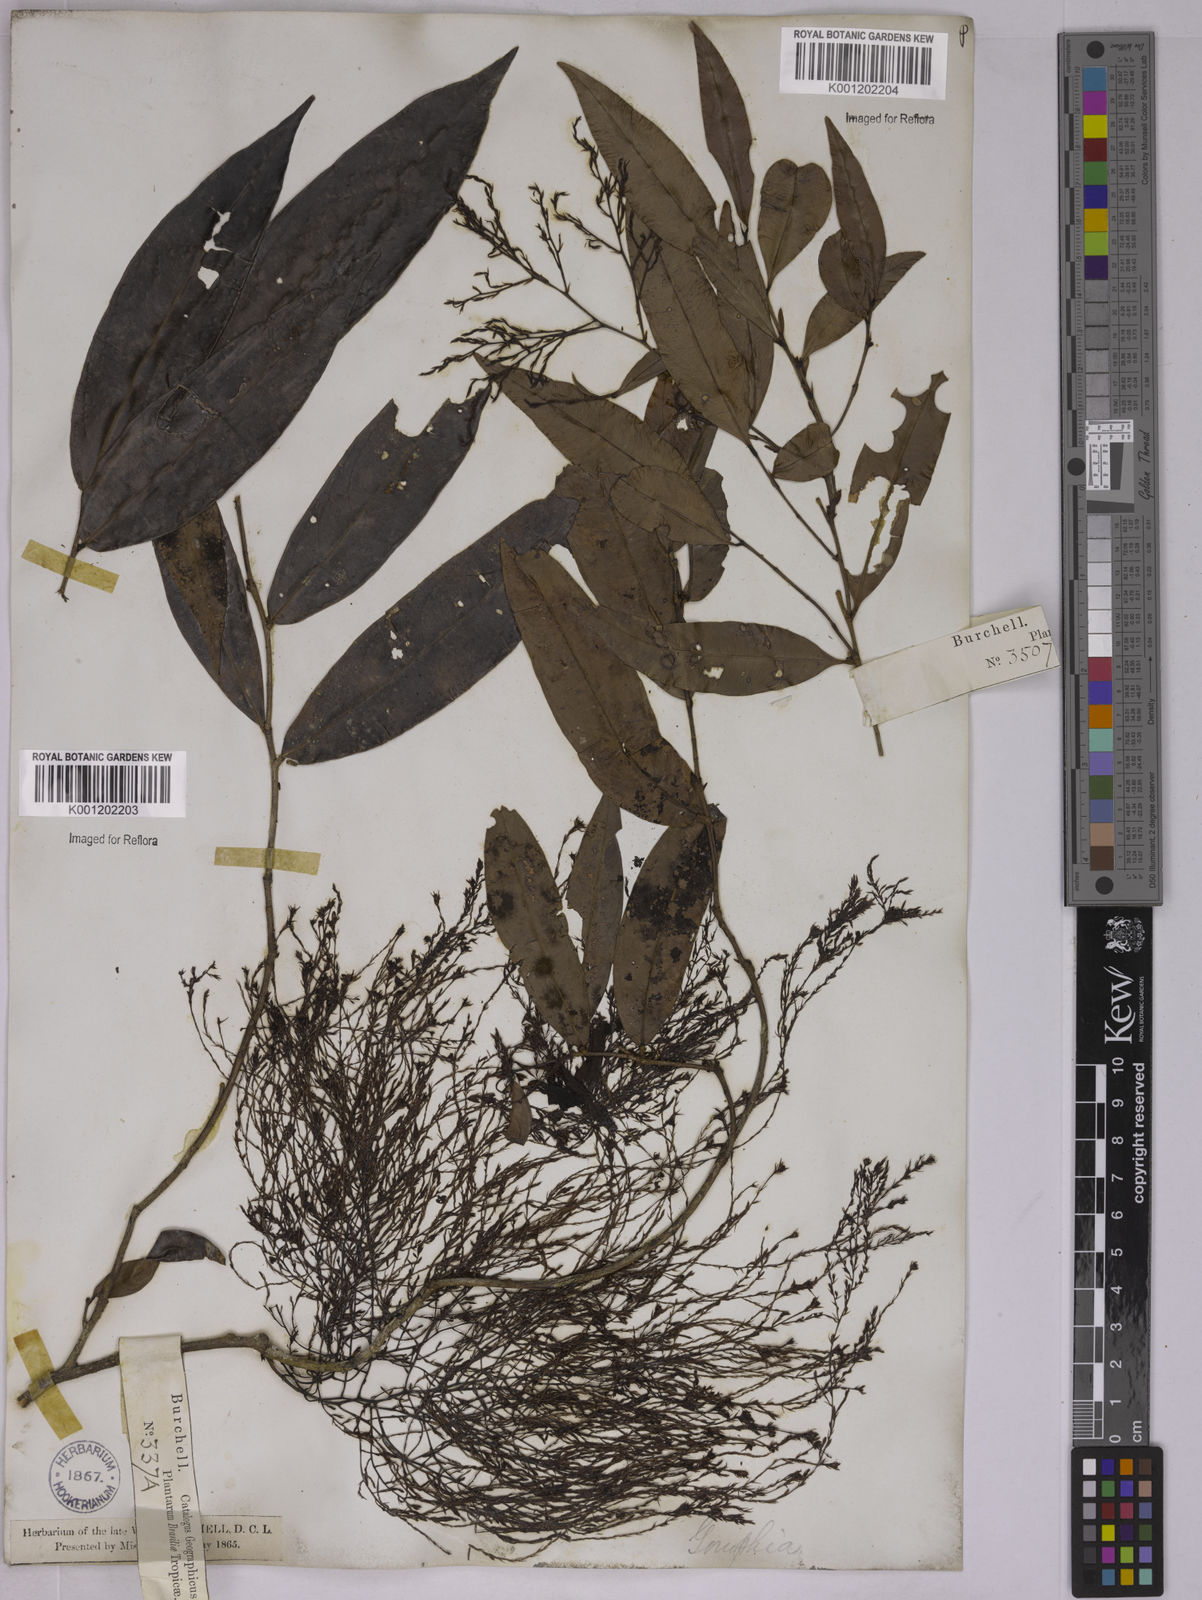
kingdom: Plantae
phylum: Tracheophyta
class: Magnoliopsida
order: Malpighiales
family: Ochnaceae
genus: Ouratea
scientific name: Ouratea
